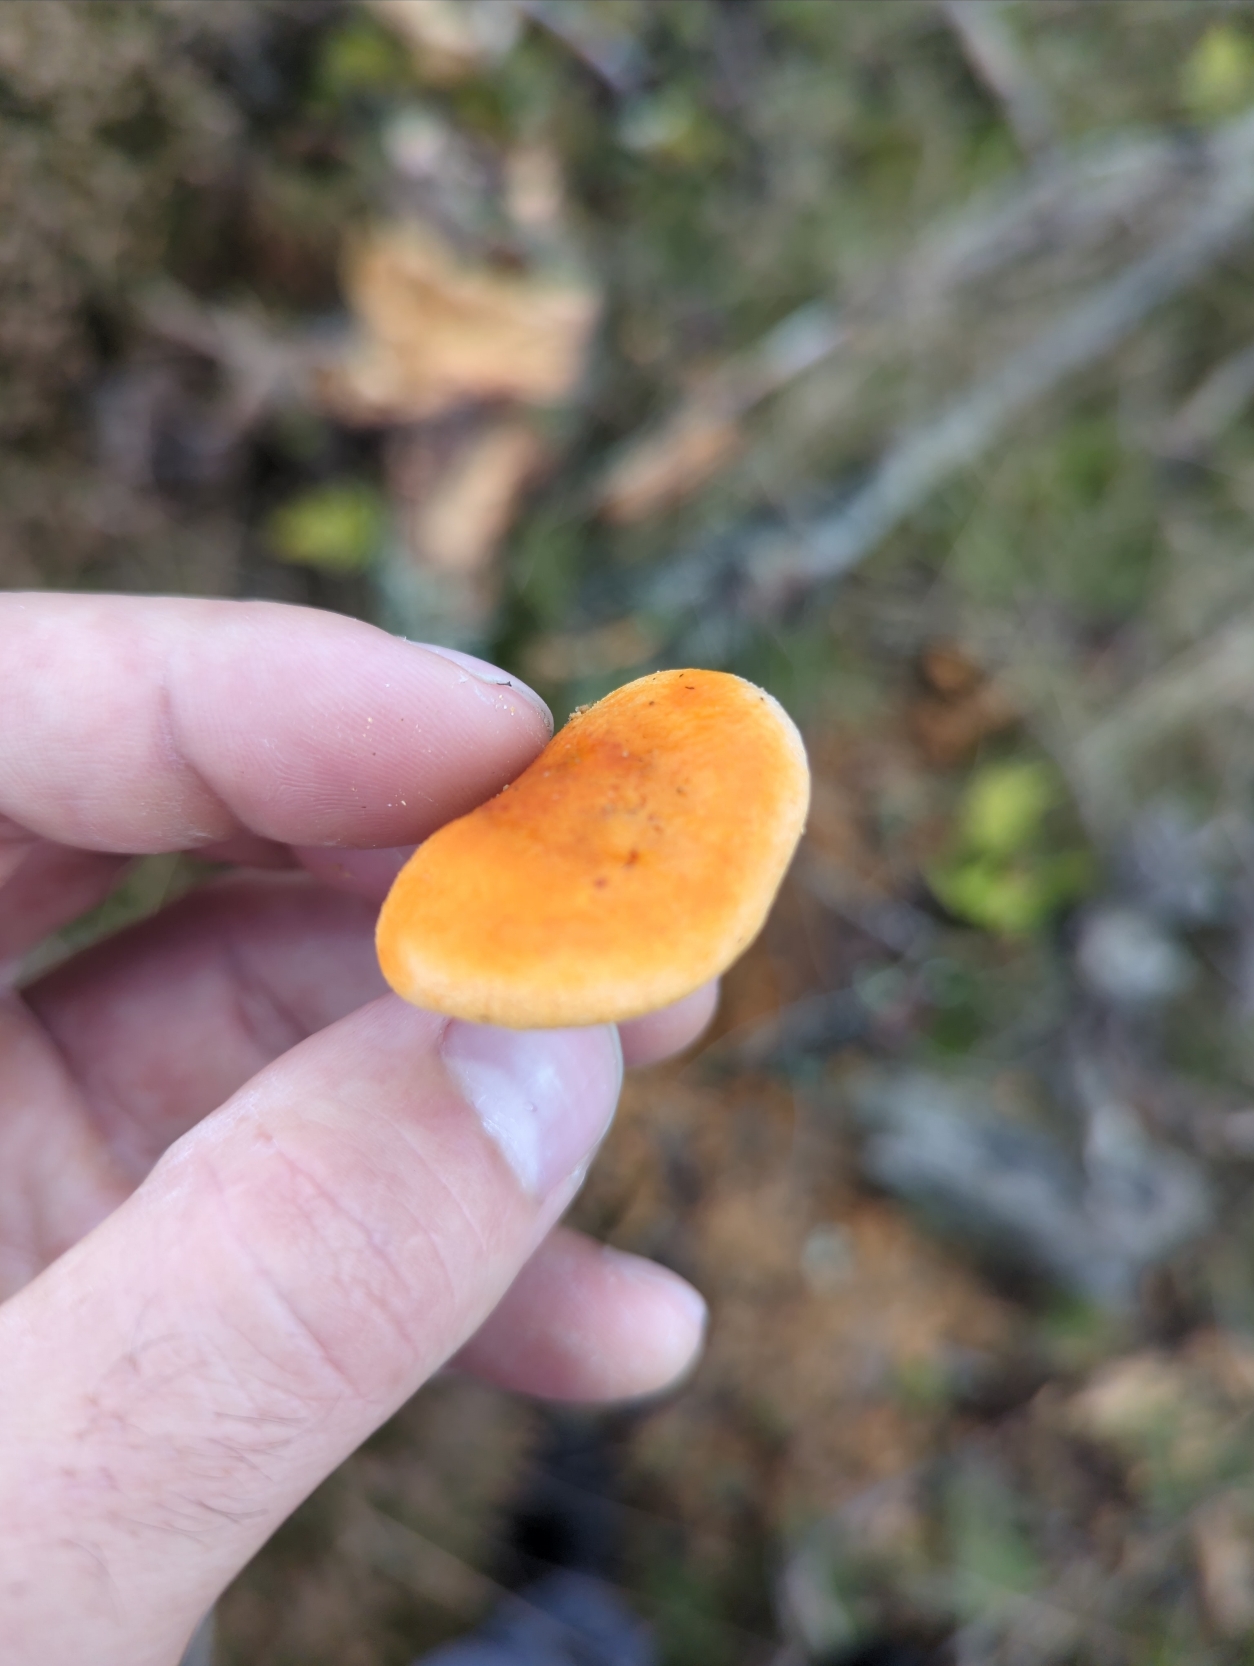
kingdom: Fungi
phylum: Basidiomycota
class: Agaricomycetes
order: Boletales
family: Hygrophoropsidaceae
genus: Hygrophoropsis
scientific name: Hygrophoropsis aurantiaca
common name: Almindelig orangekantarel
